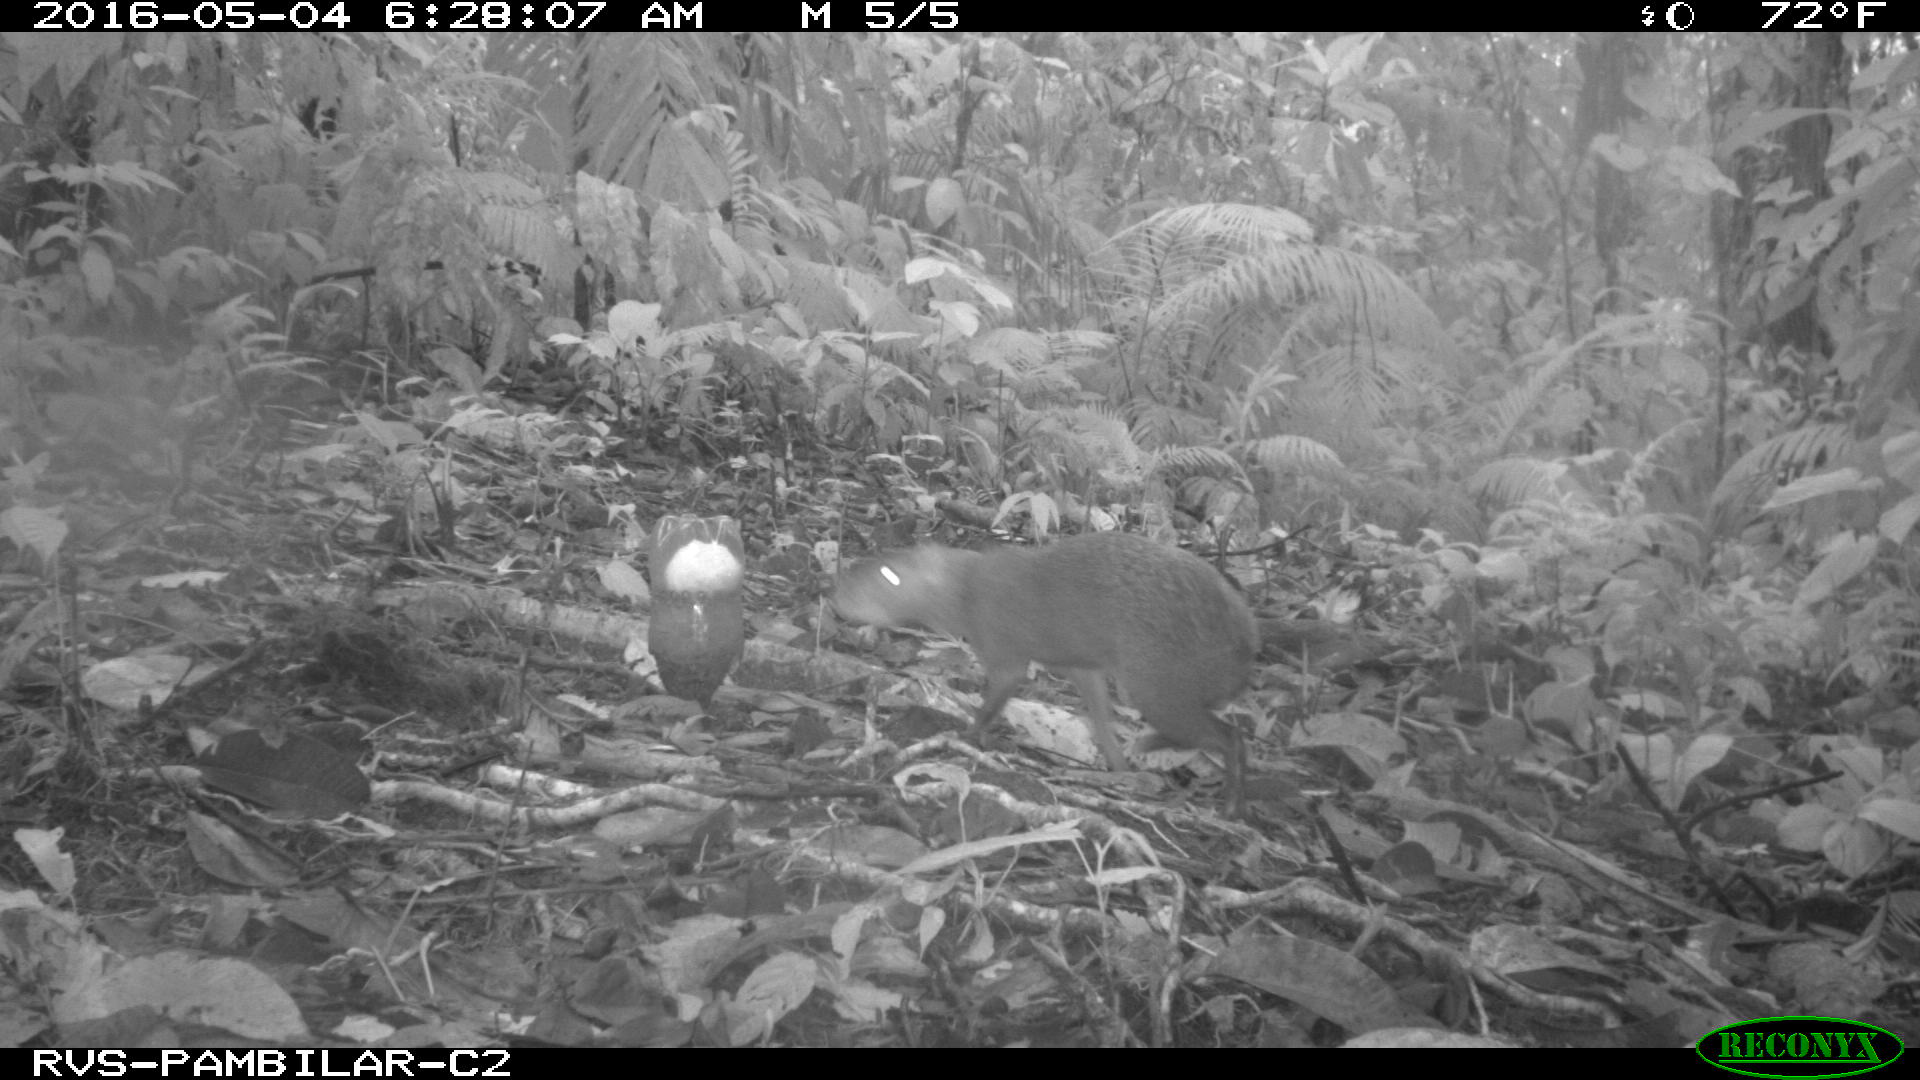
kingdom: Animalia
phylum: Chordata
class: Mammalia
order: Rodentia
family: Dasyproctidae
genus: Dasyprocta
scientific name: Dasyprocta punctata
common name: Central american agouti
